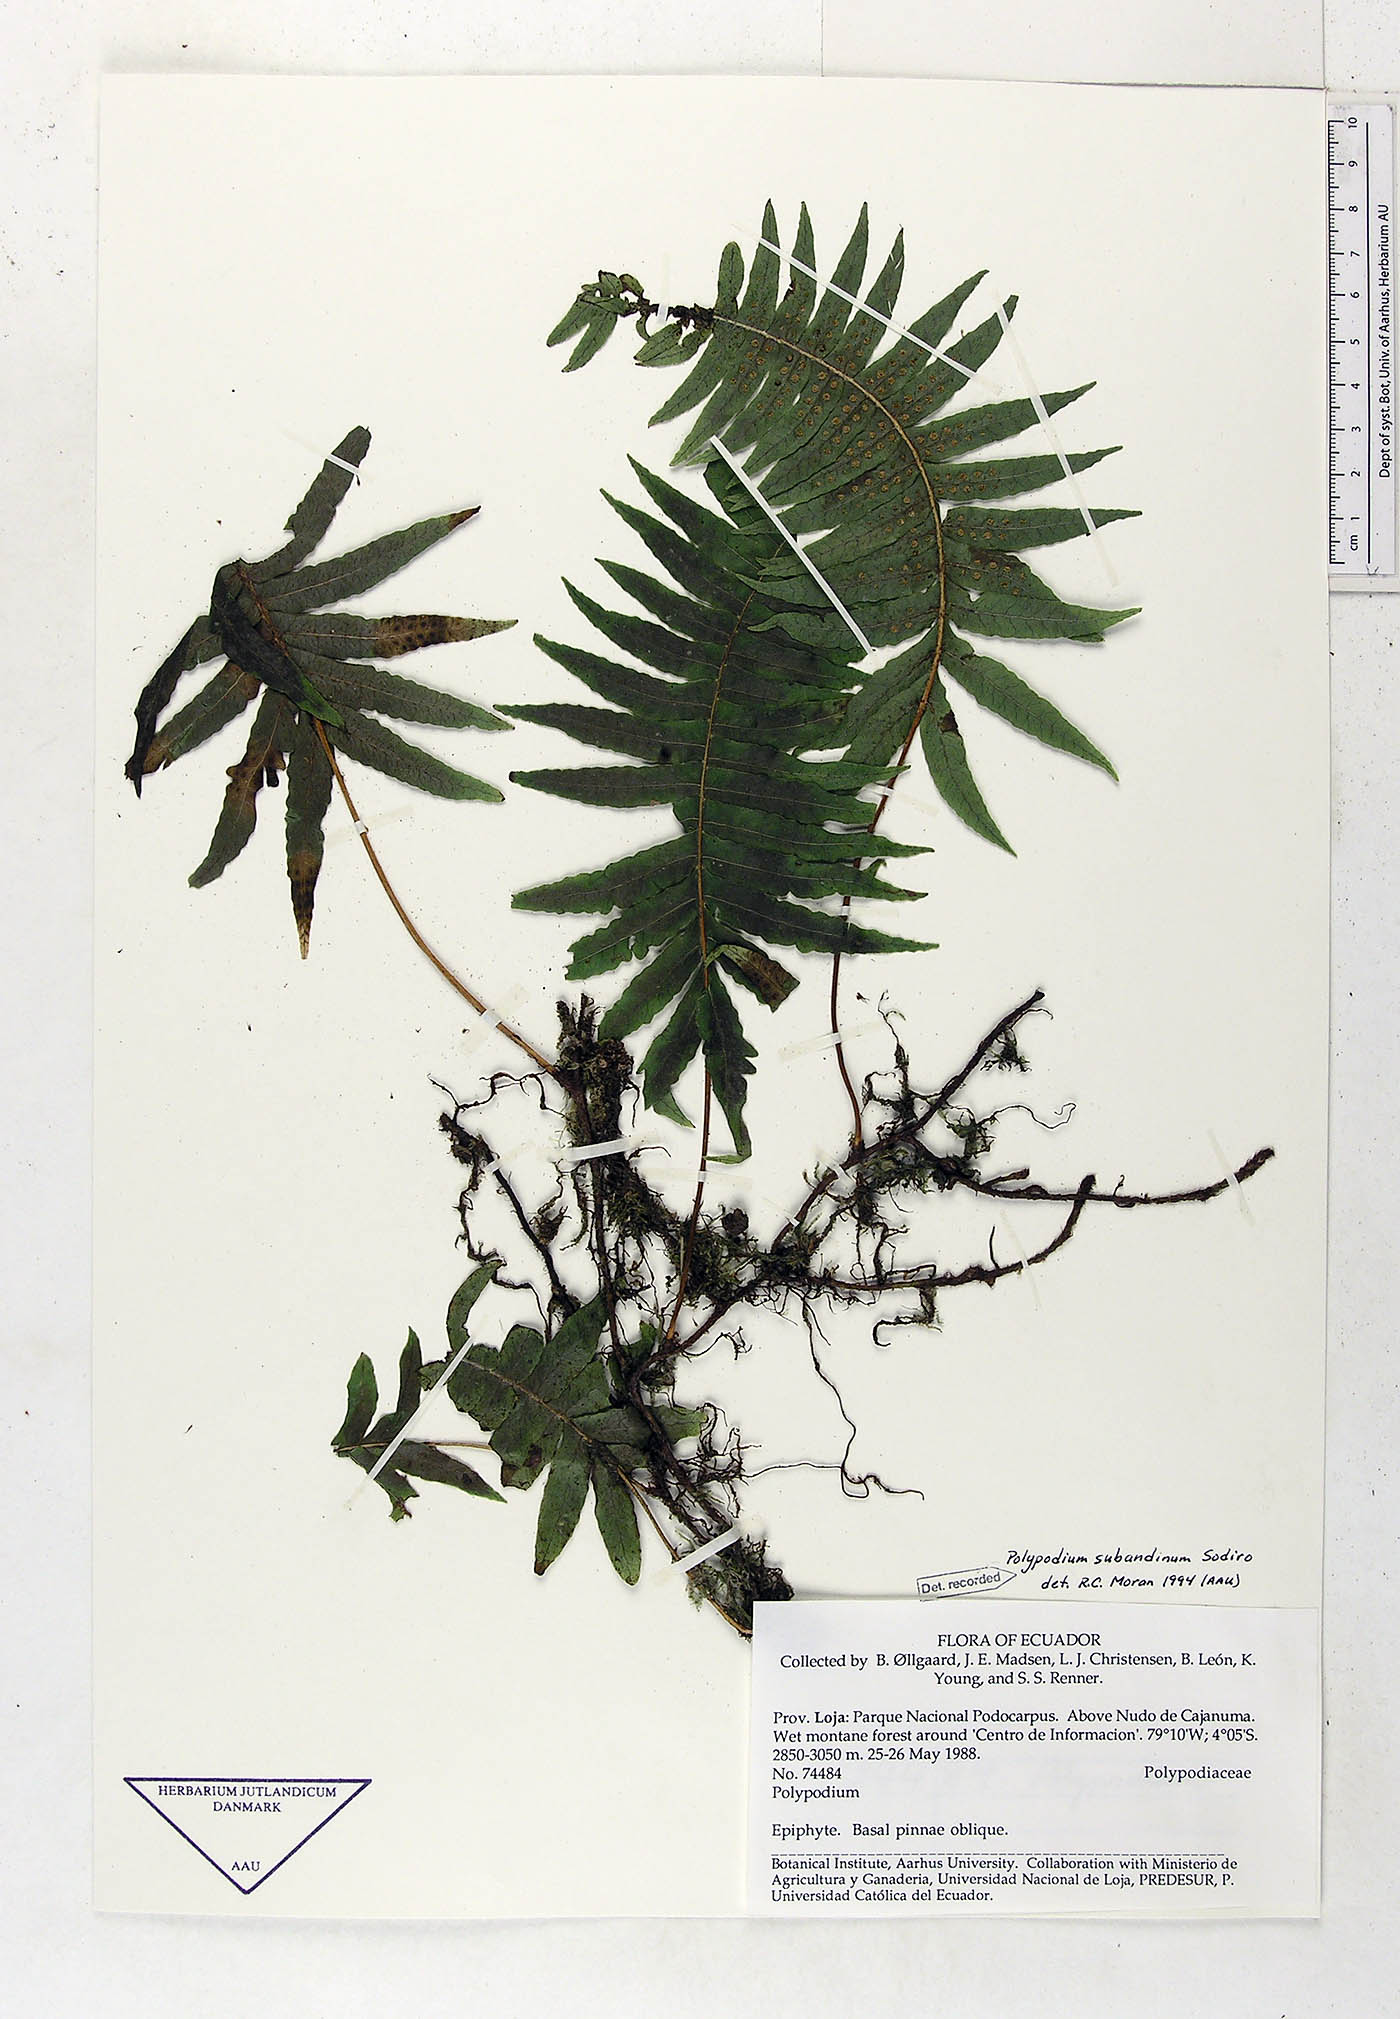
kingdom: Plantae
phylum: Tracheophyta
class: Polypodiopsida
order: Polypodiales
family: Polypodiaceae
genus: Serpocaulon
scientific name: Serpocaulon subandinum
